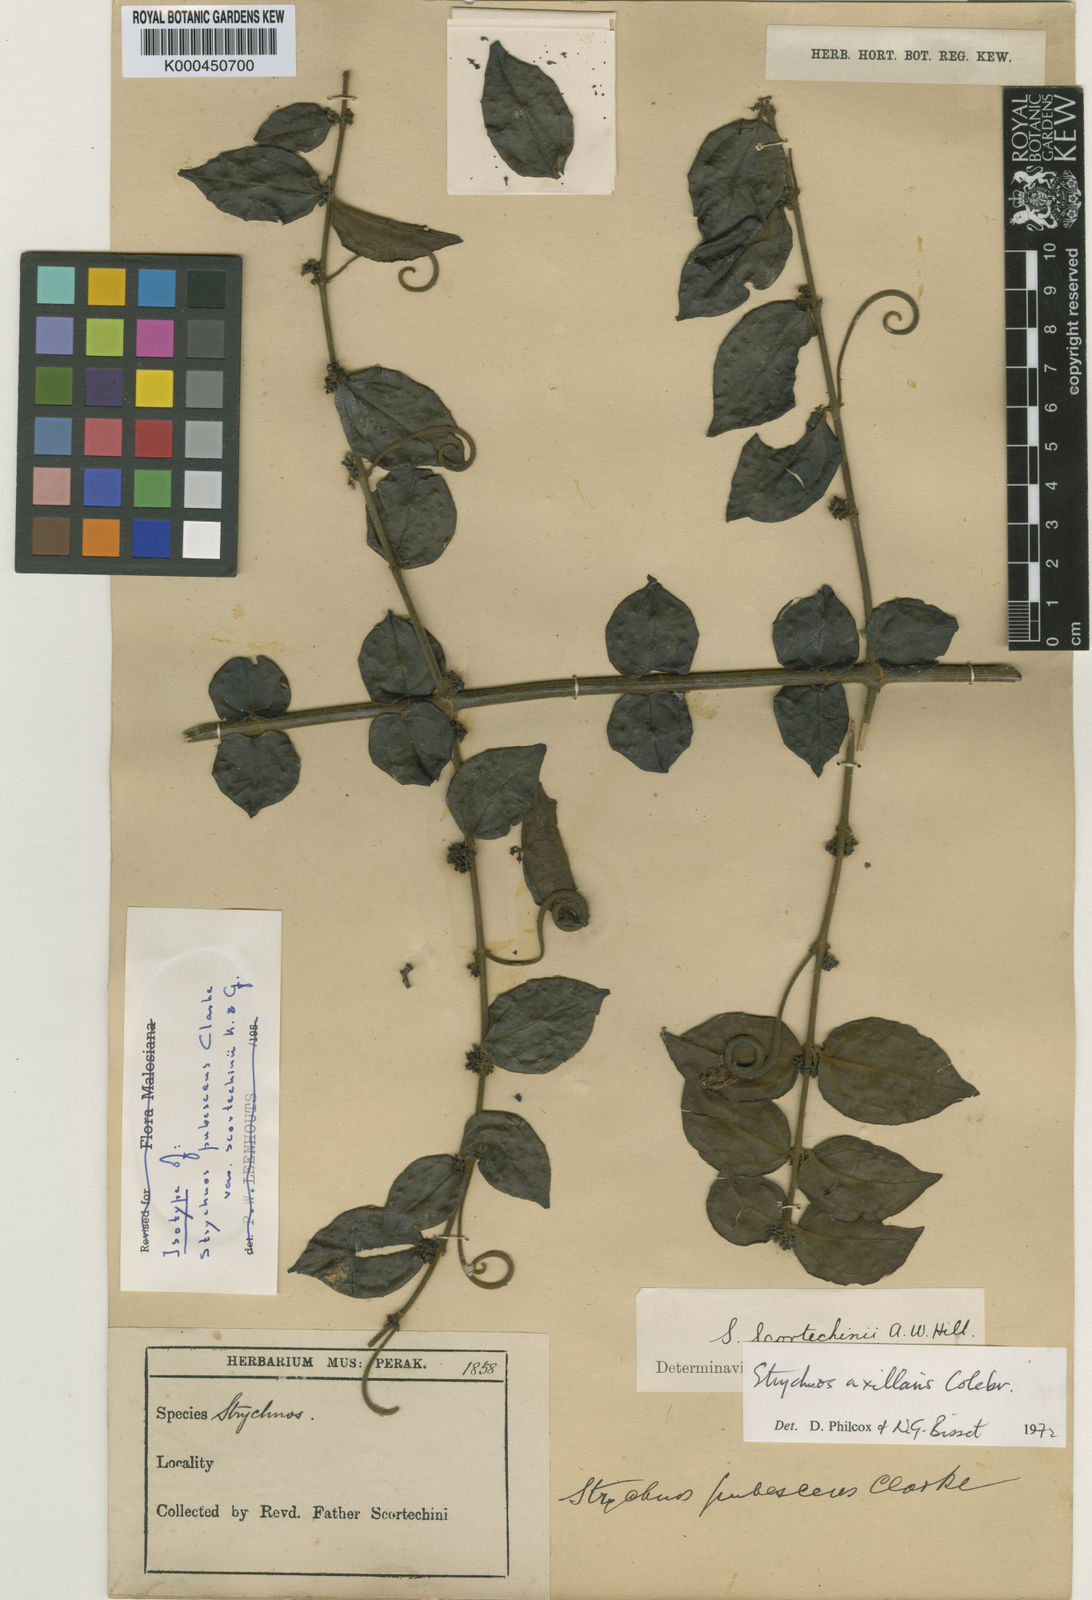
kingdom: Plantae
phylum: Tracheophyta
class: Magnoliopsida
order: Gentianales
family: Loganiaceae
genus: Strychnos
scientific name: Strychnos axillaris
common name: Strychninebush
